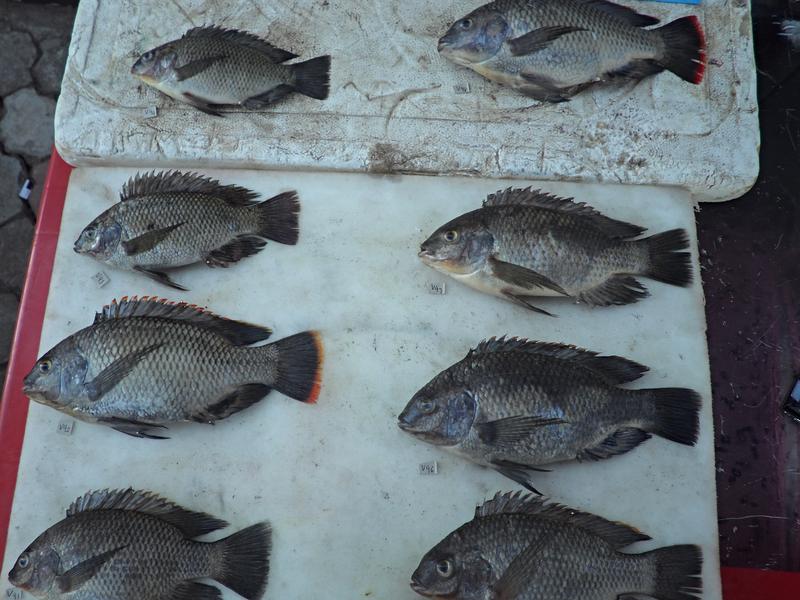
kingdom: Animalia
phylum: Chordata
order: Perciformes
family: Cichlidae
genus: Oreochromis
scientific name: Oreochromis variabilis
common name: Victoria tilapia
